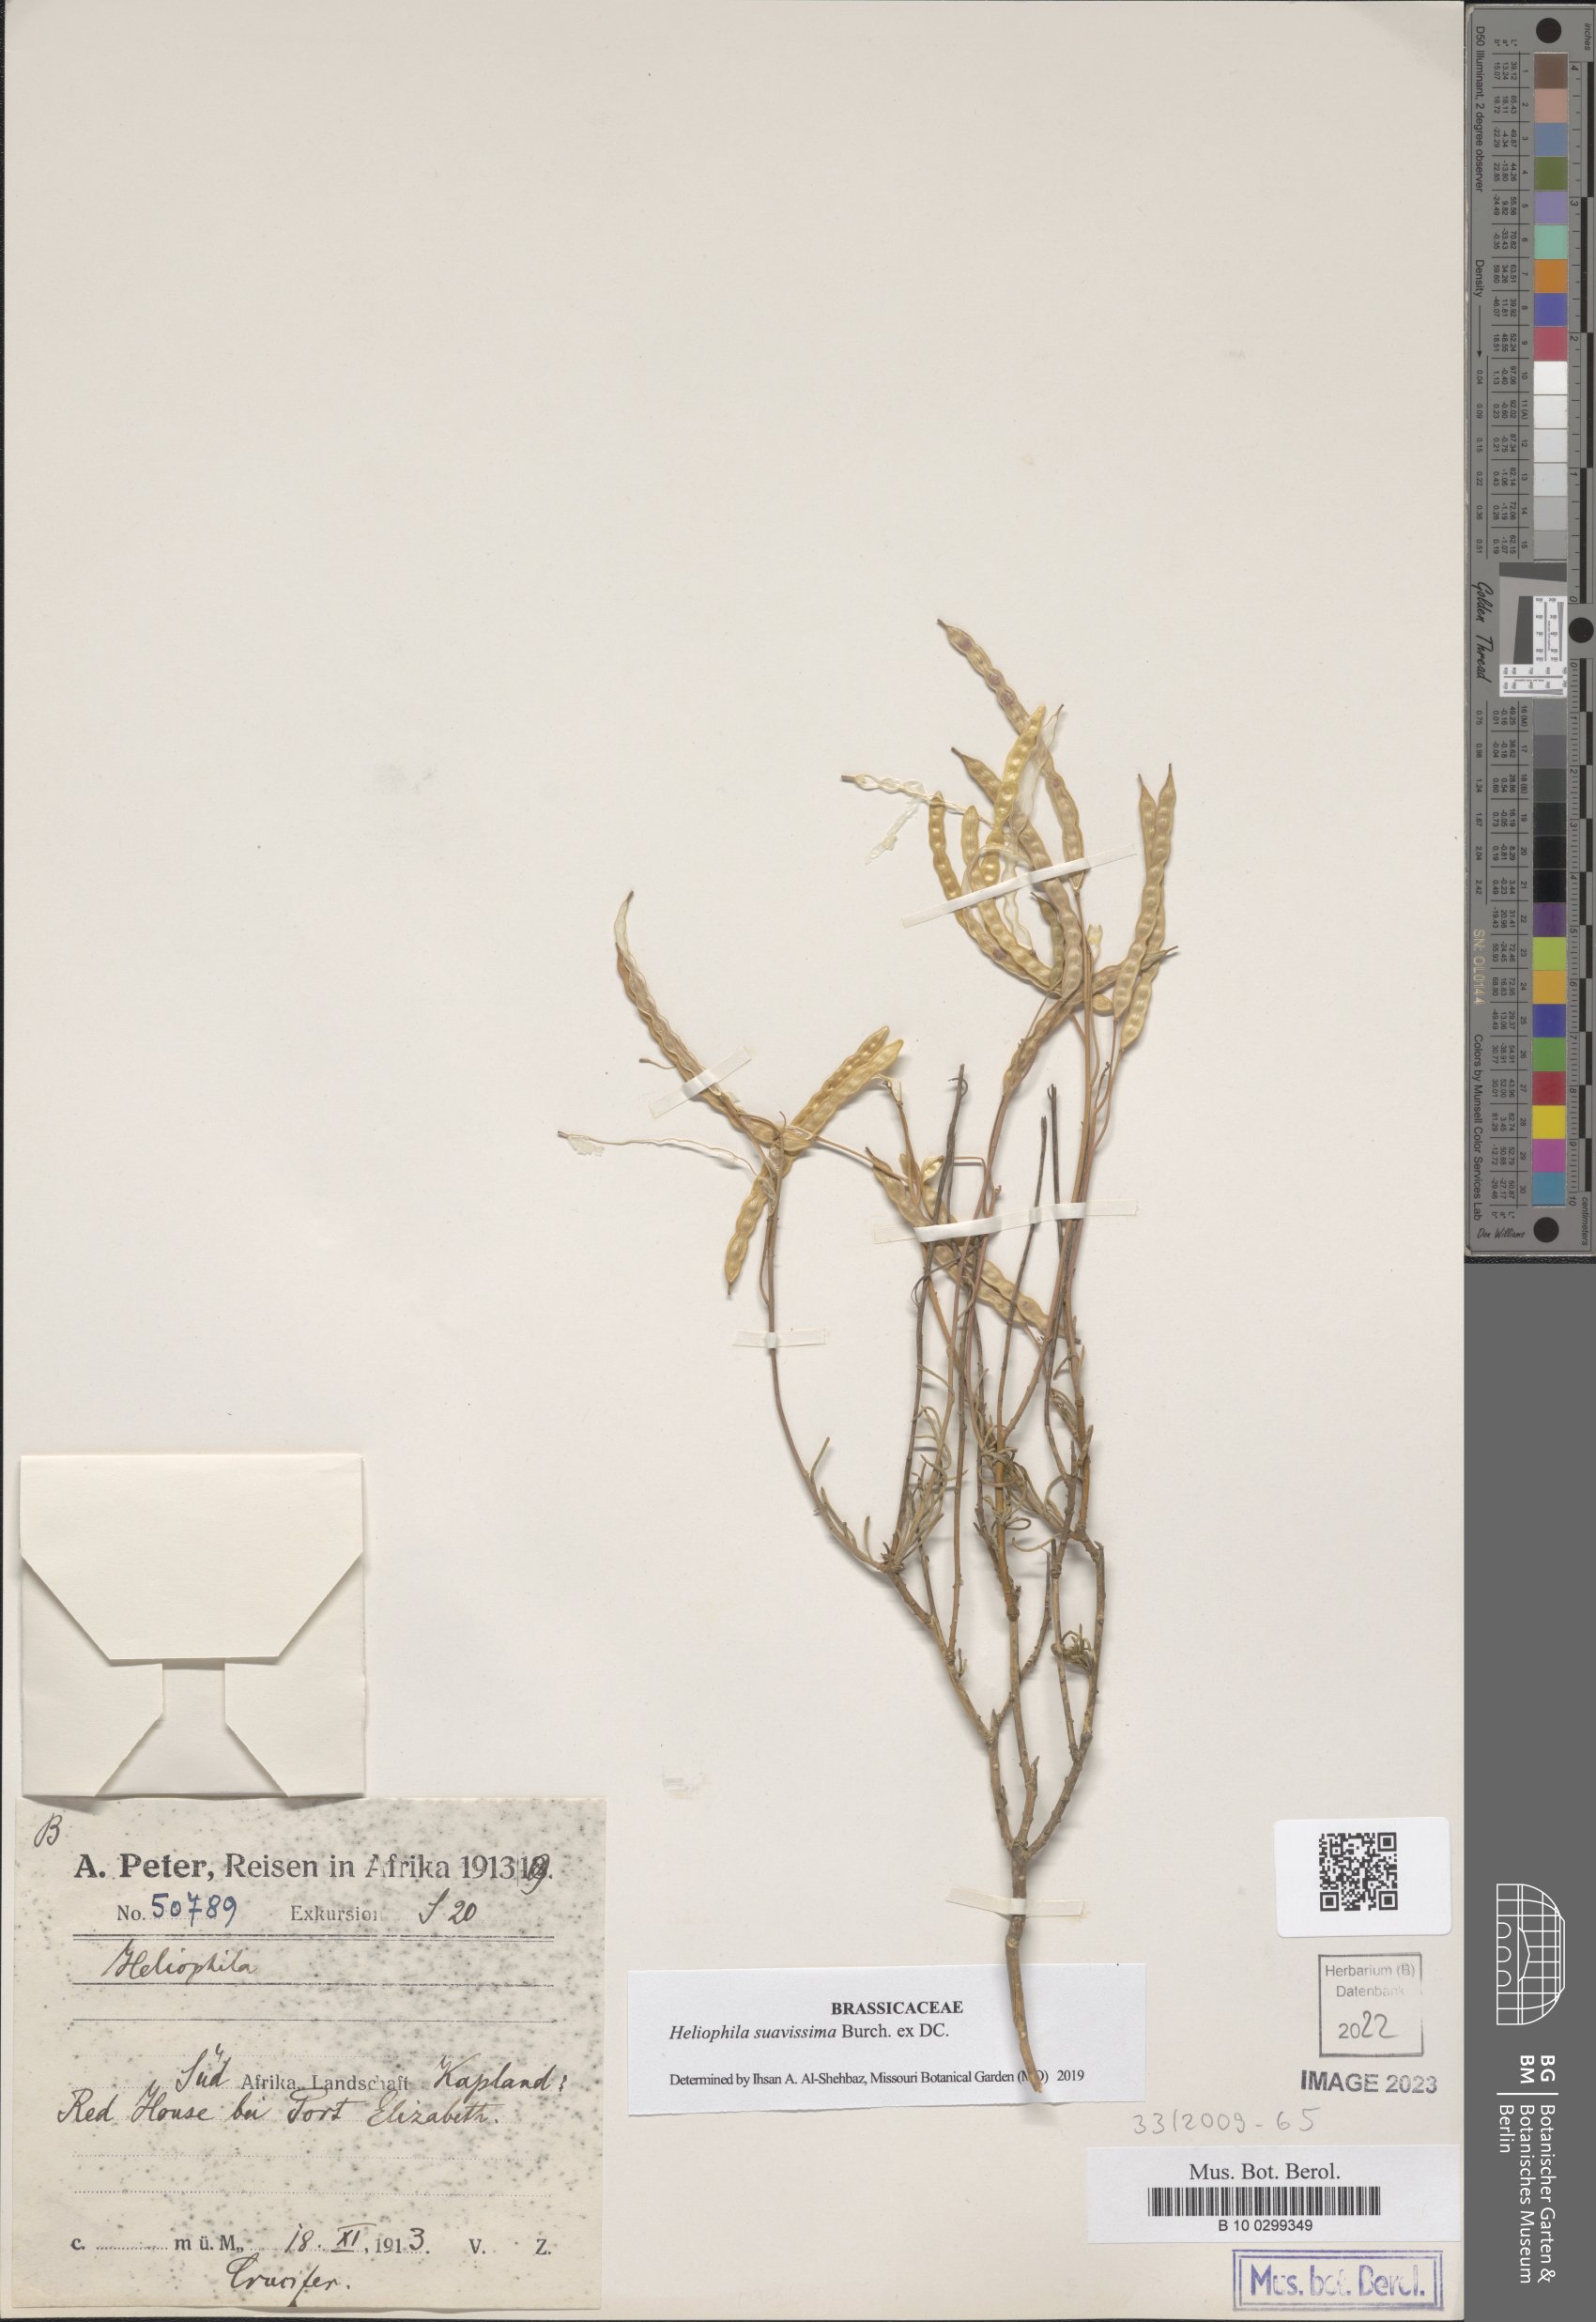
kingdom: Plantae
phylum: Tracheophyta
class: Magnoliopsida
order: Brassicales
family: Brassicaceae
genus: Heliophila
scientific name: Heliophila suavissima
